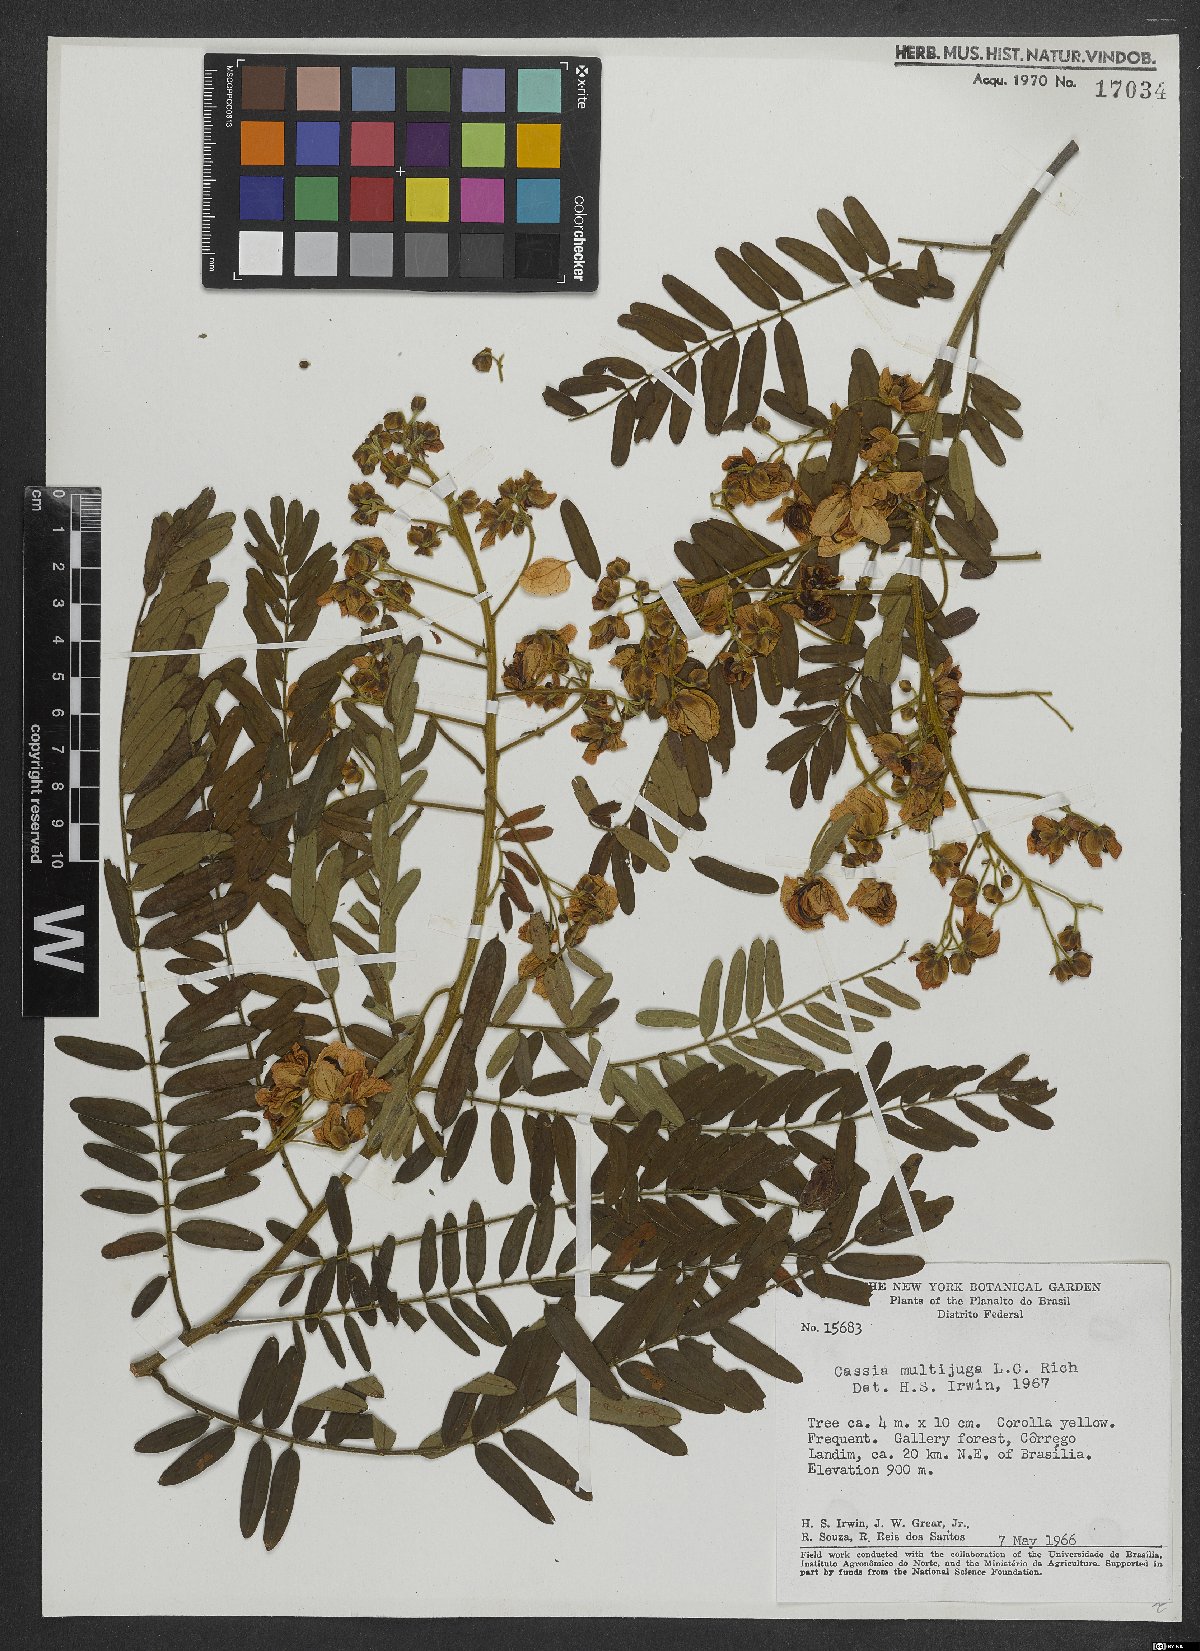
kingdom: Plantae
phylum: Tracheophyta
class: Magnoliopsida
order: Fabales
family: Fabaceae
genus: Senna
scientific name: Senna multijuga
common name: False sicklepod
